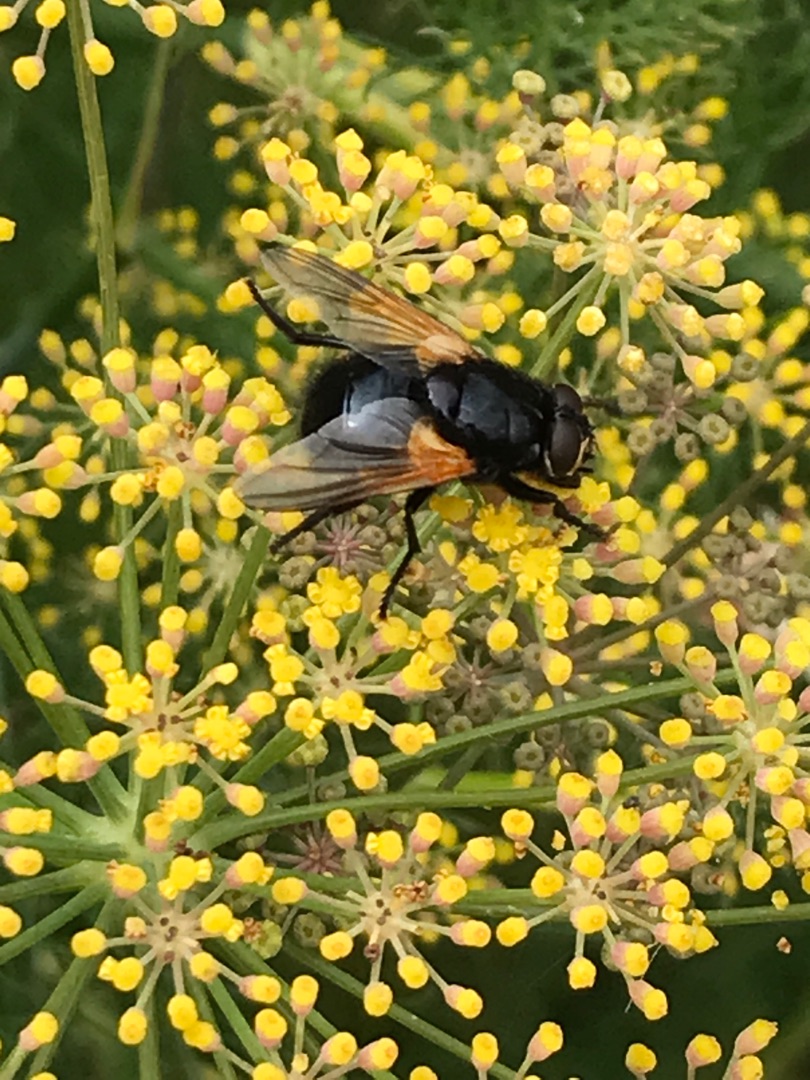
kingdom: Animalia
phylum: Arthropoda
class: Insecta
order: Diptera
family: Muscidae
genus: Mesembrina
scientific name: Mesembrina meridiana
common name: Gulvinget flue
